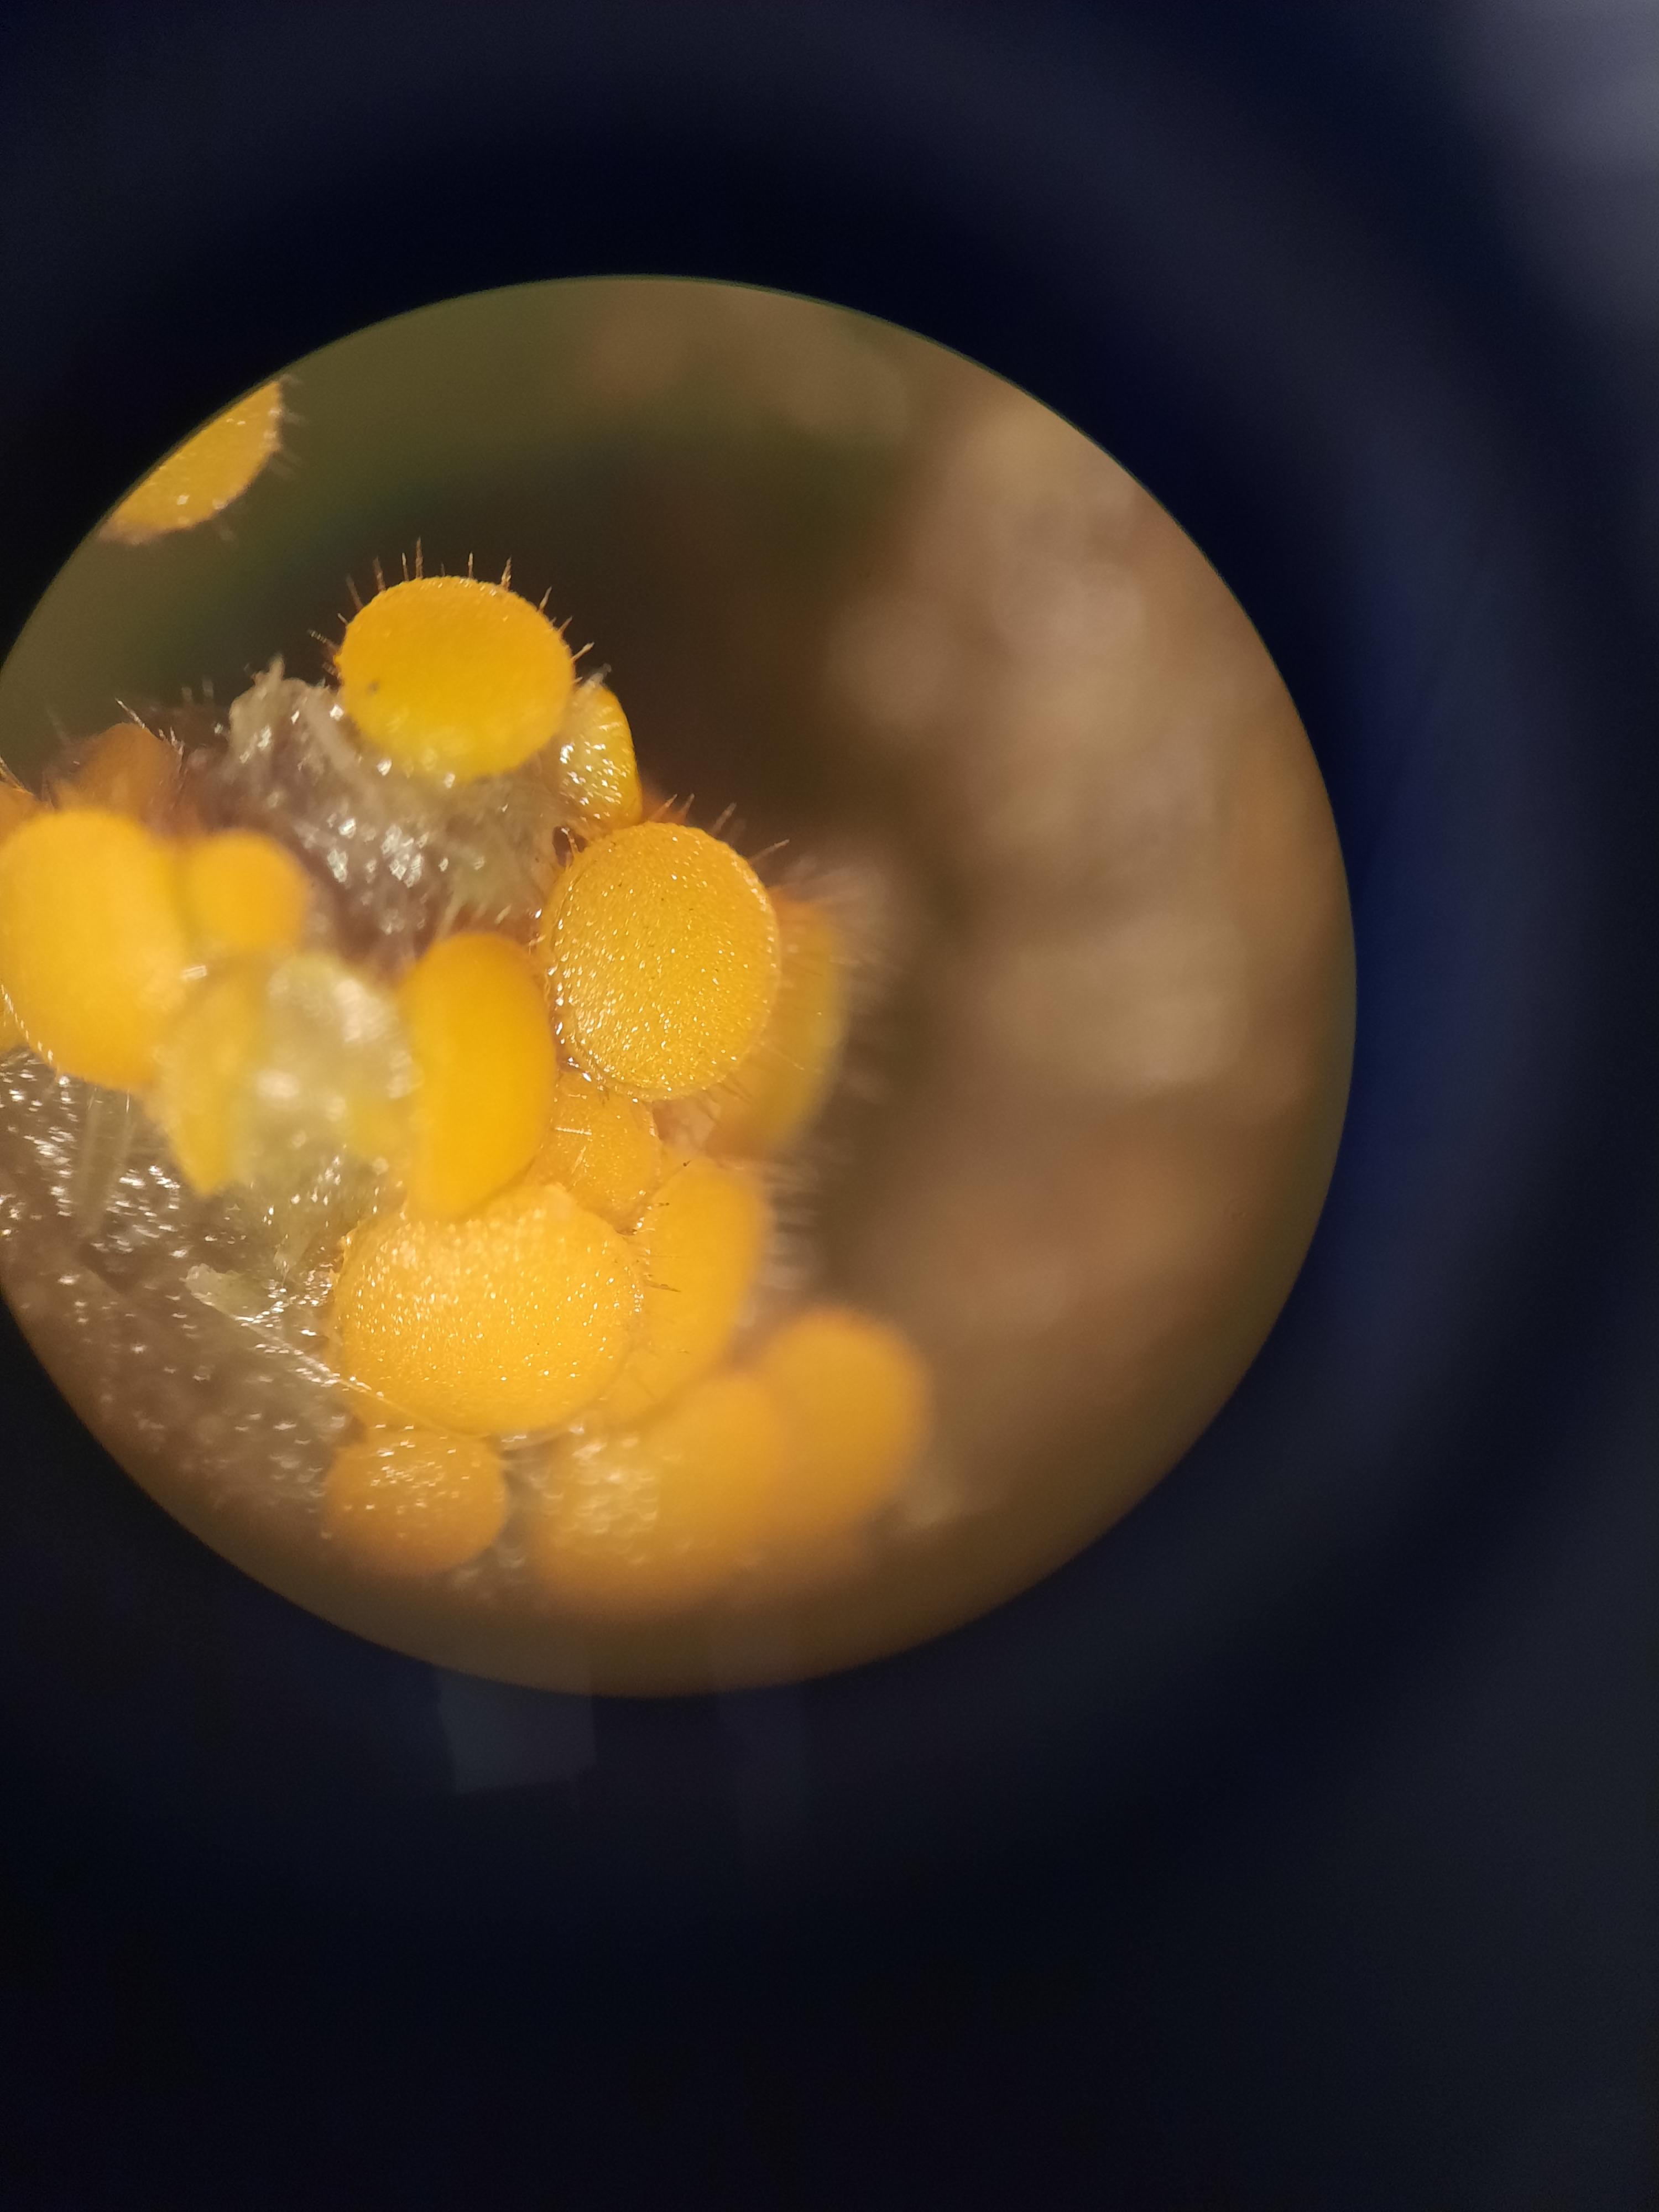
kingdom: Fungi
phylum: Ascomycota
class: Pezizomycetes
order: Pezizales
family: Pyronemataceae
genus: Cheilymenia
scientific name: Cheilymenia
